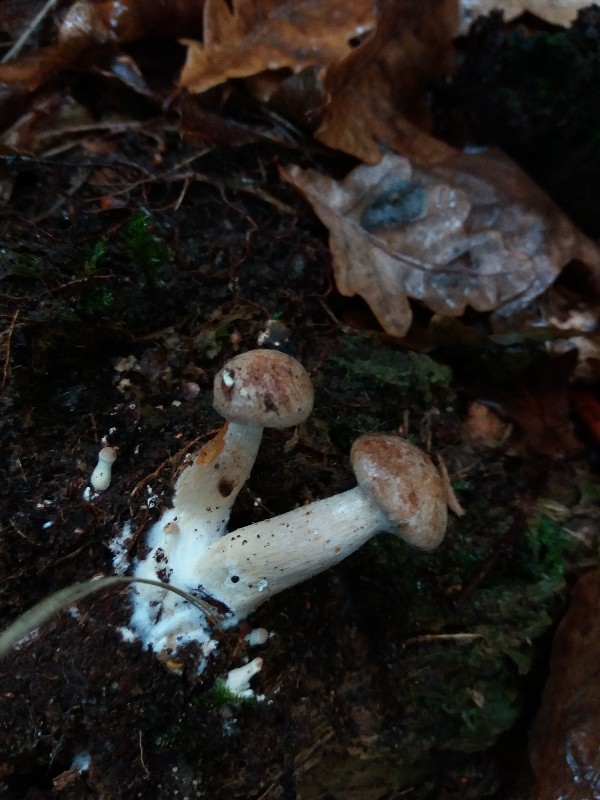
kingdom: Fungi
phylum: Basidiomycota
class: Agaricomycetes
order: Russulales
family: Russulaceae
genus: Lactarius
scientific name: Lactarius quietus
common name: ege-mælkehat
